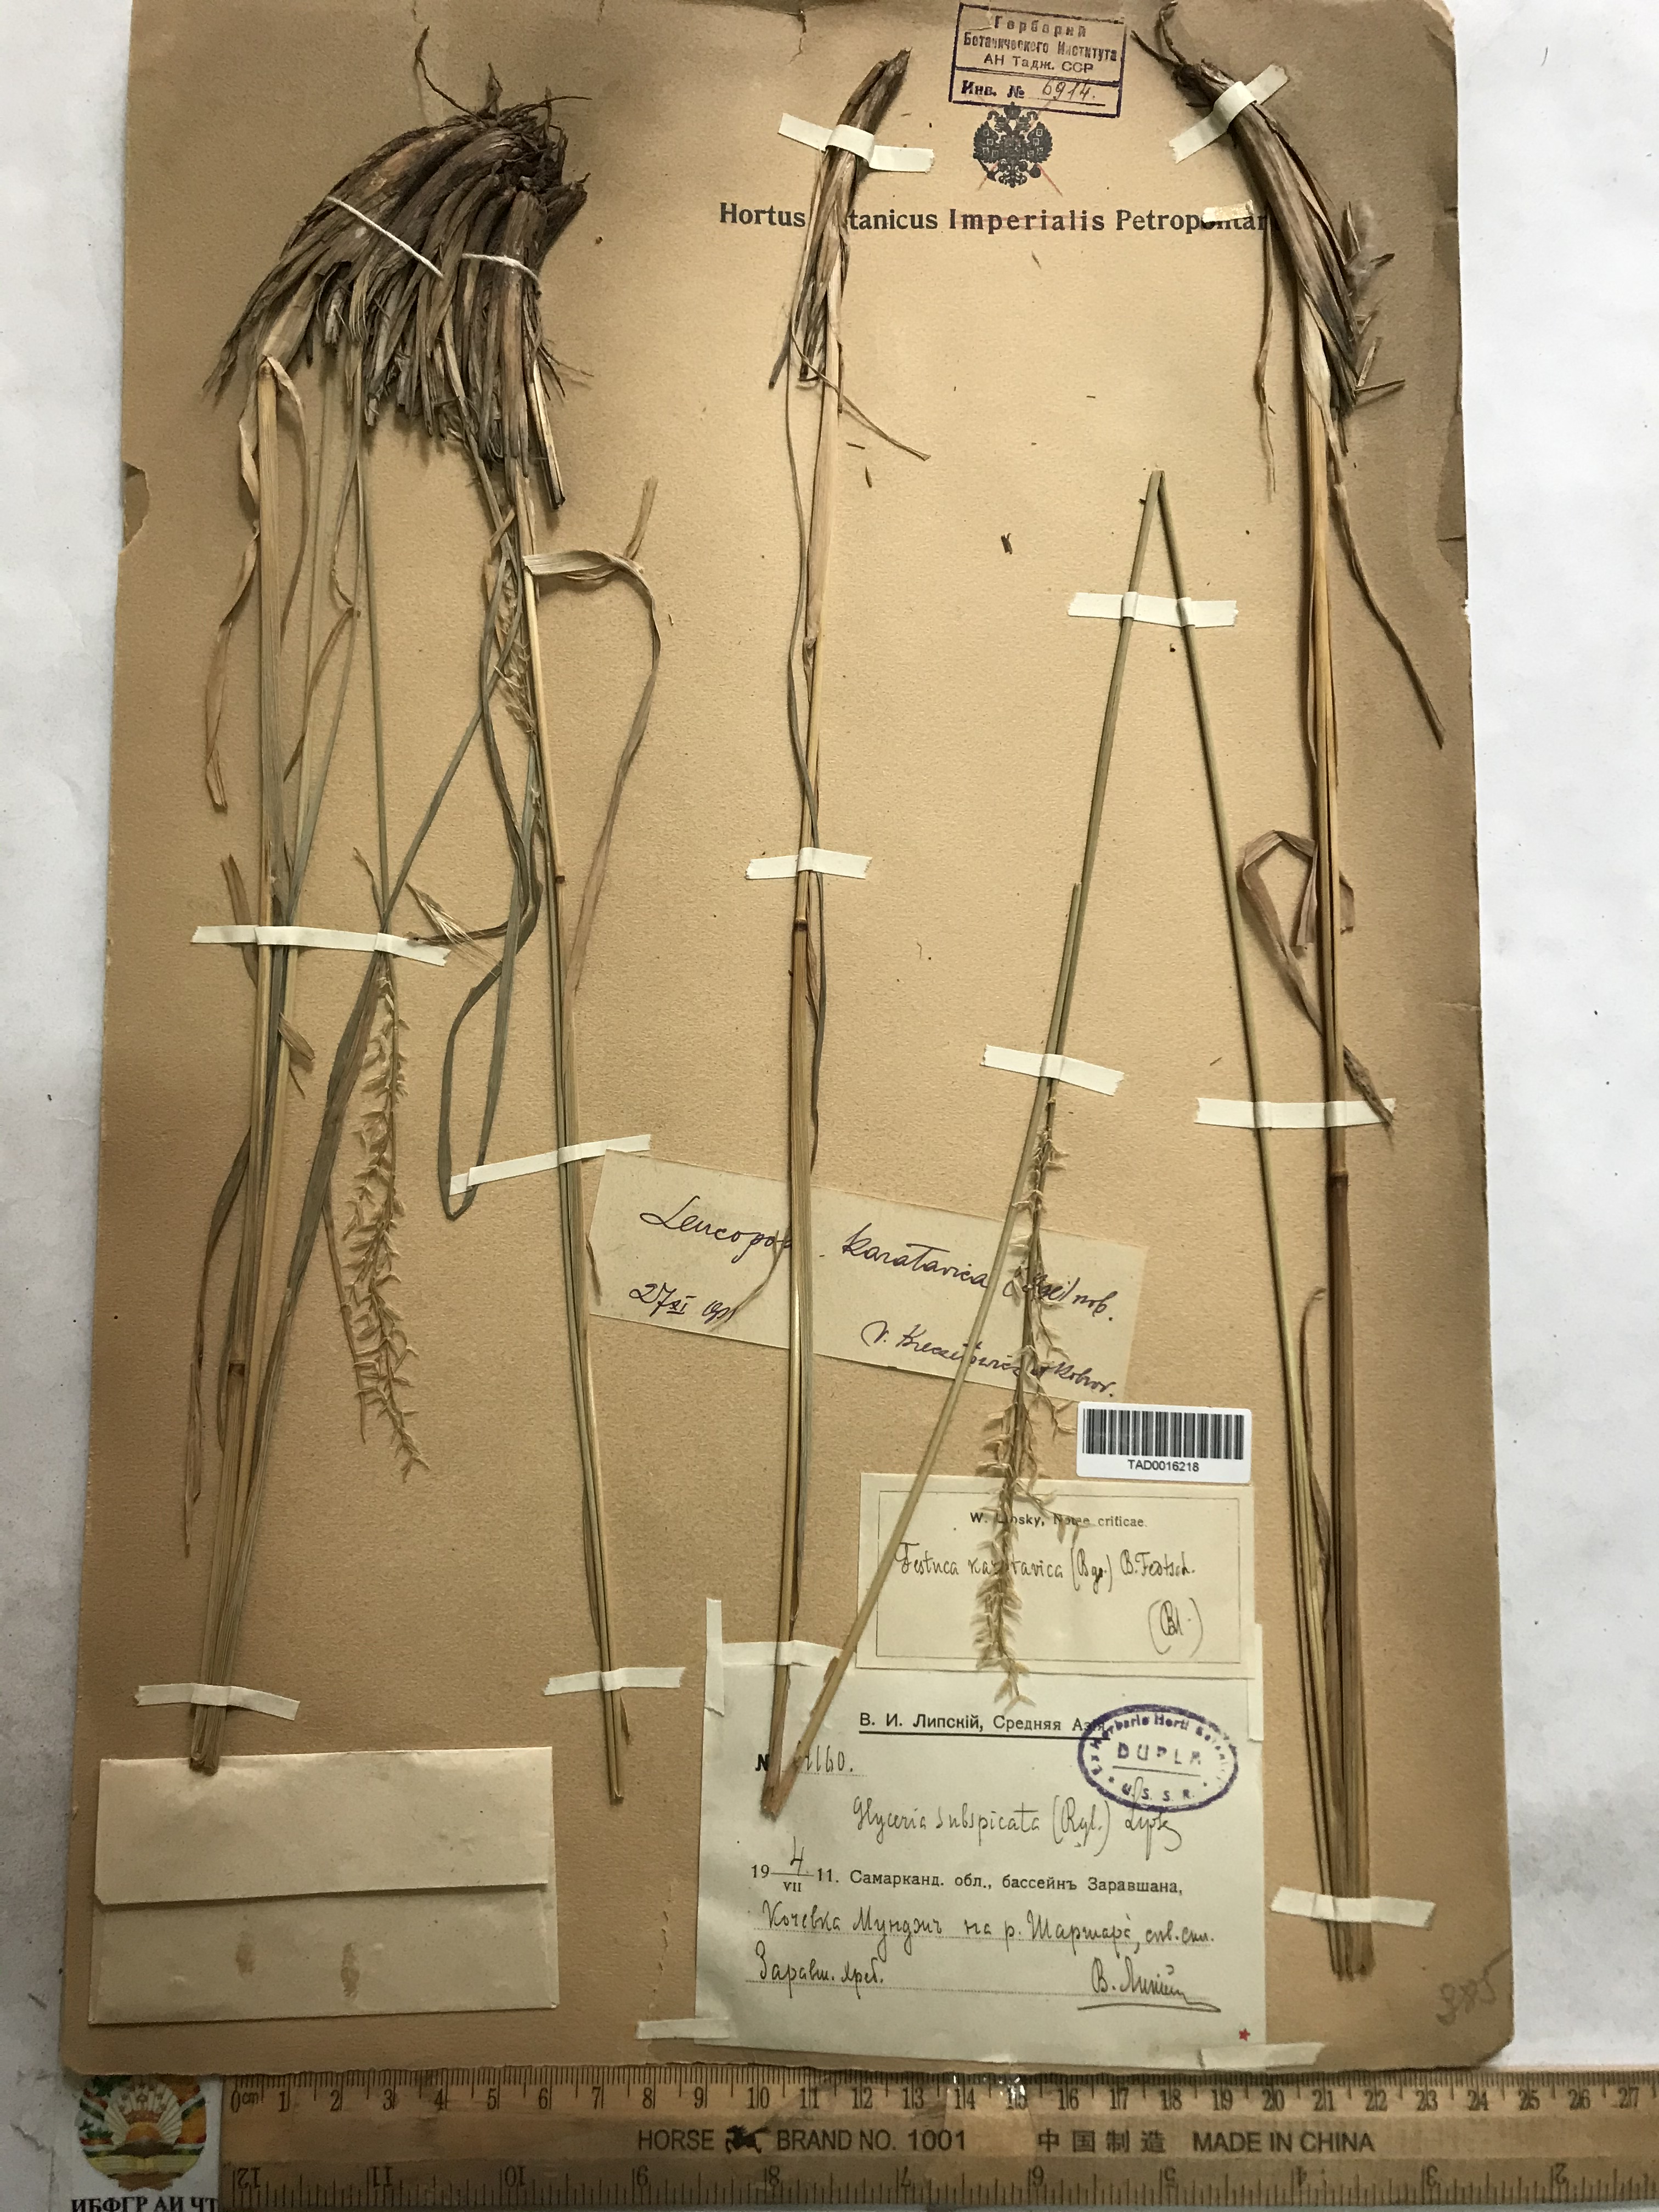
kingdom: Plantae
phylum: Tracheophyta
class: Liliopsida
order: Poales
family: Poaceae
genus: Festuca
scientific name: Festuca karatavica
